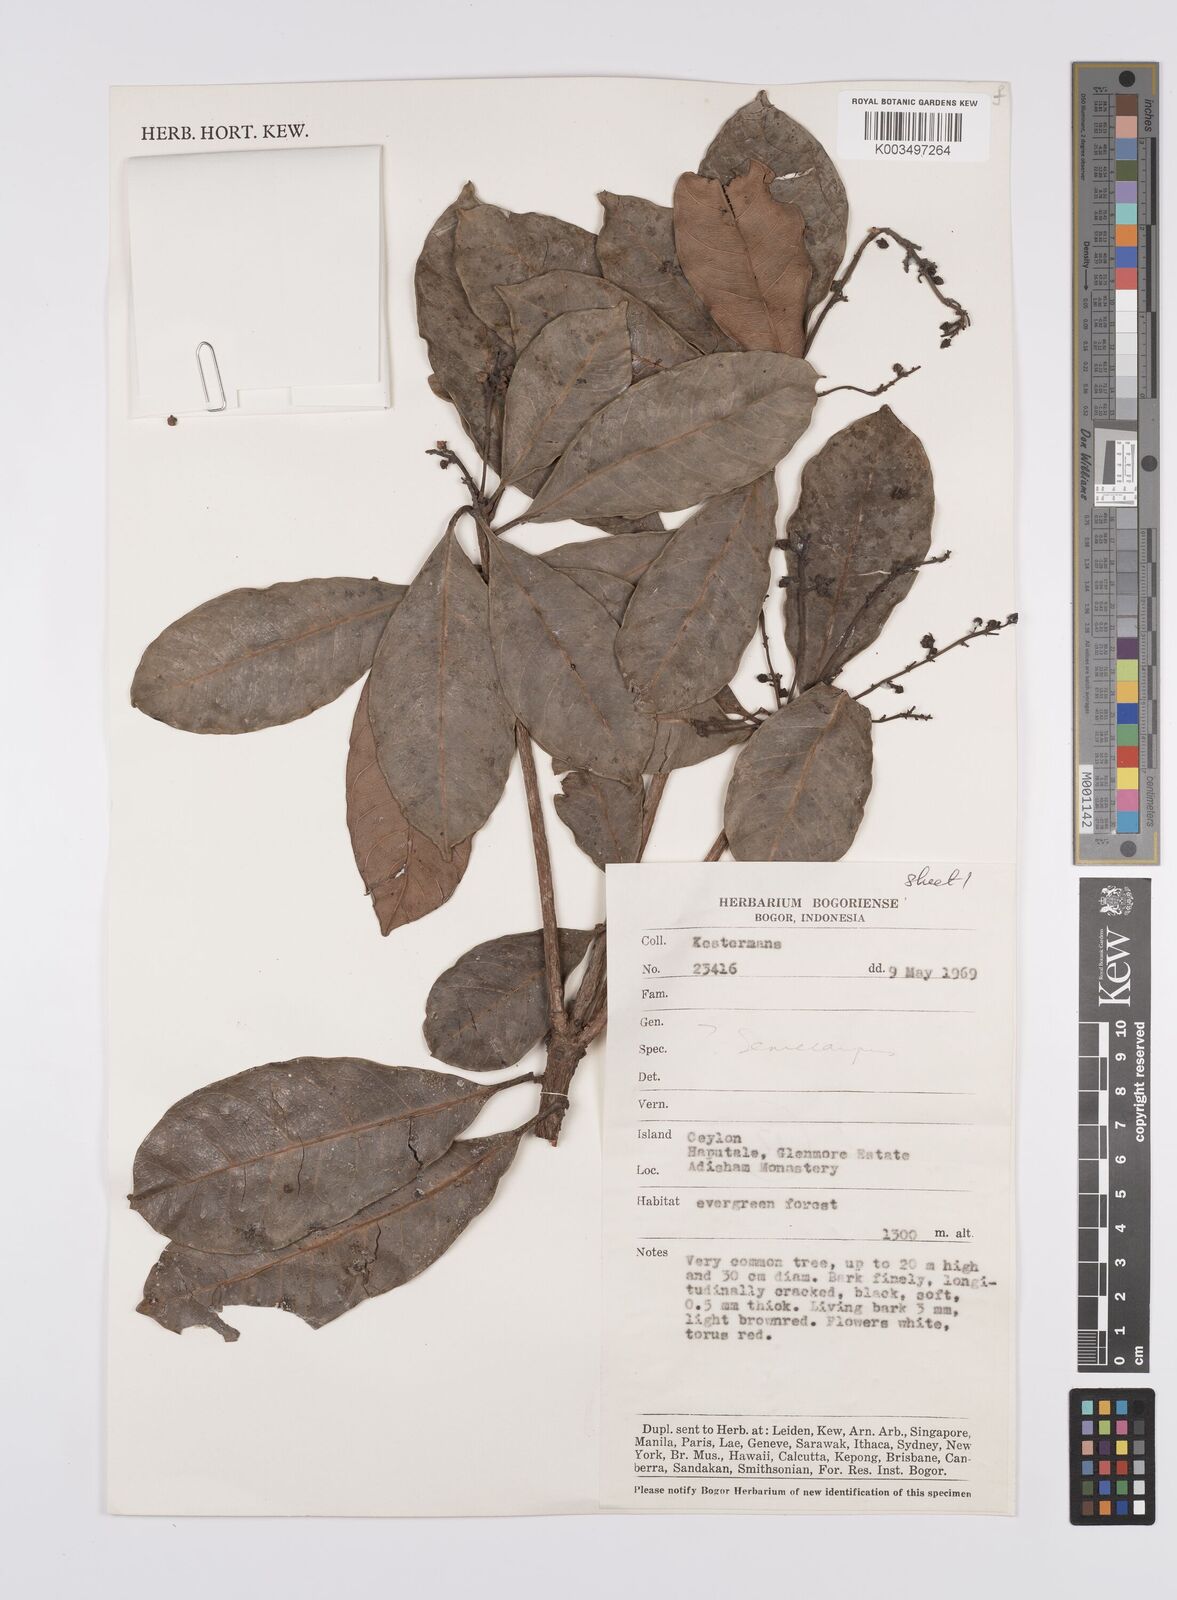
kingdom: Plantae
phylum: Tracheophyta
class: Magnoliopsida
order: Sapindales
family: Anacardiaceae
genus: Semecarpus
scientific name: Semecarpus
